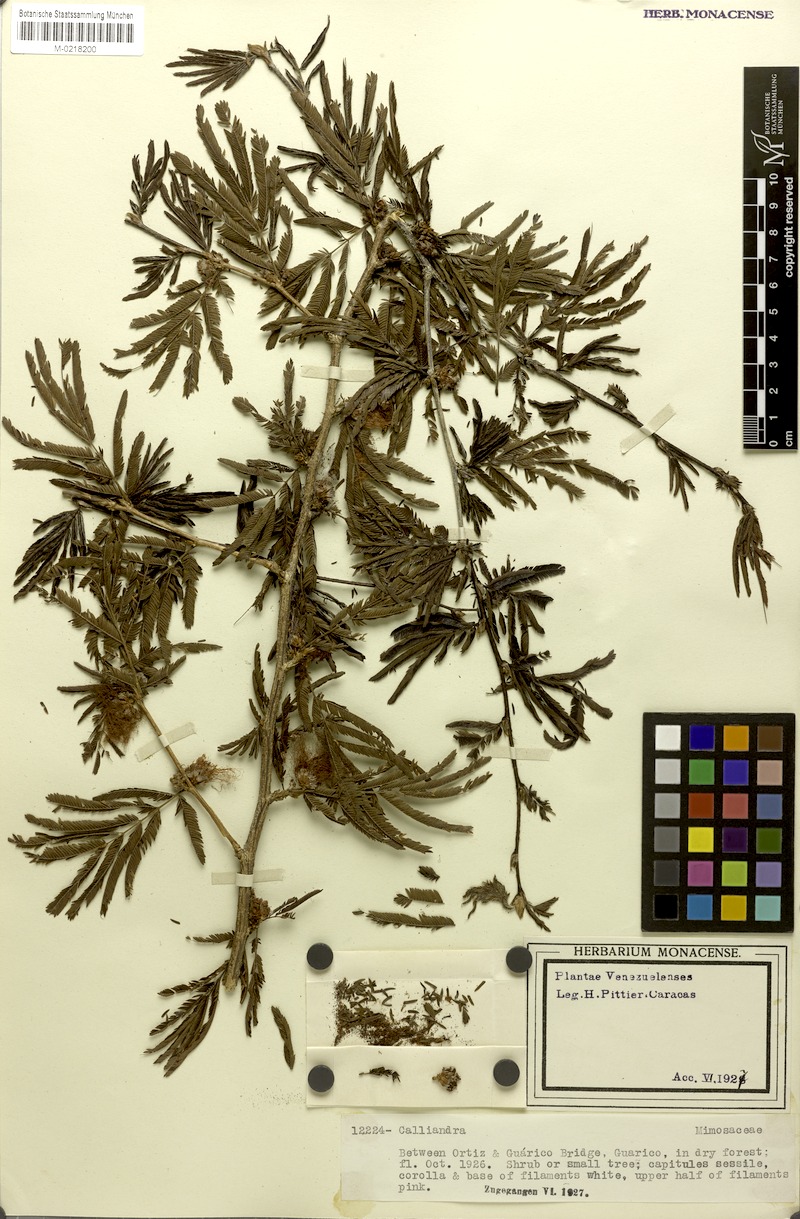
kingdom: Plantae
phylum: Tracheophyta
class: Magnoliopsida
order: Fabales
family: Fabaceae
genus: Calliandra
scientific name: Calliandra cruegeri
